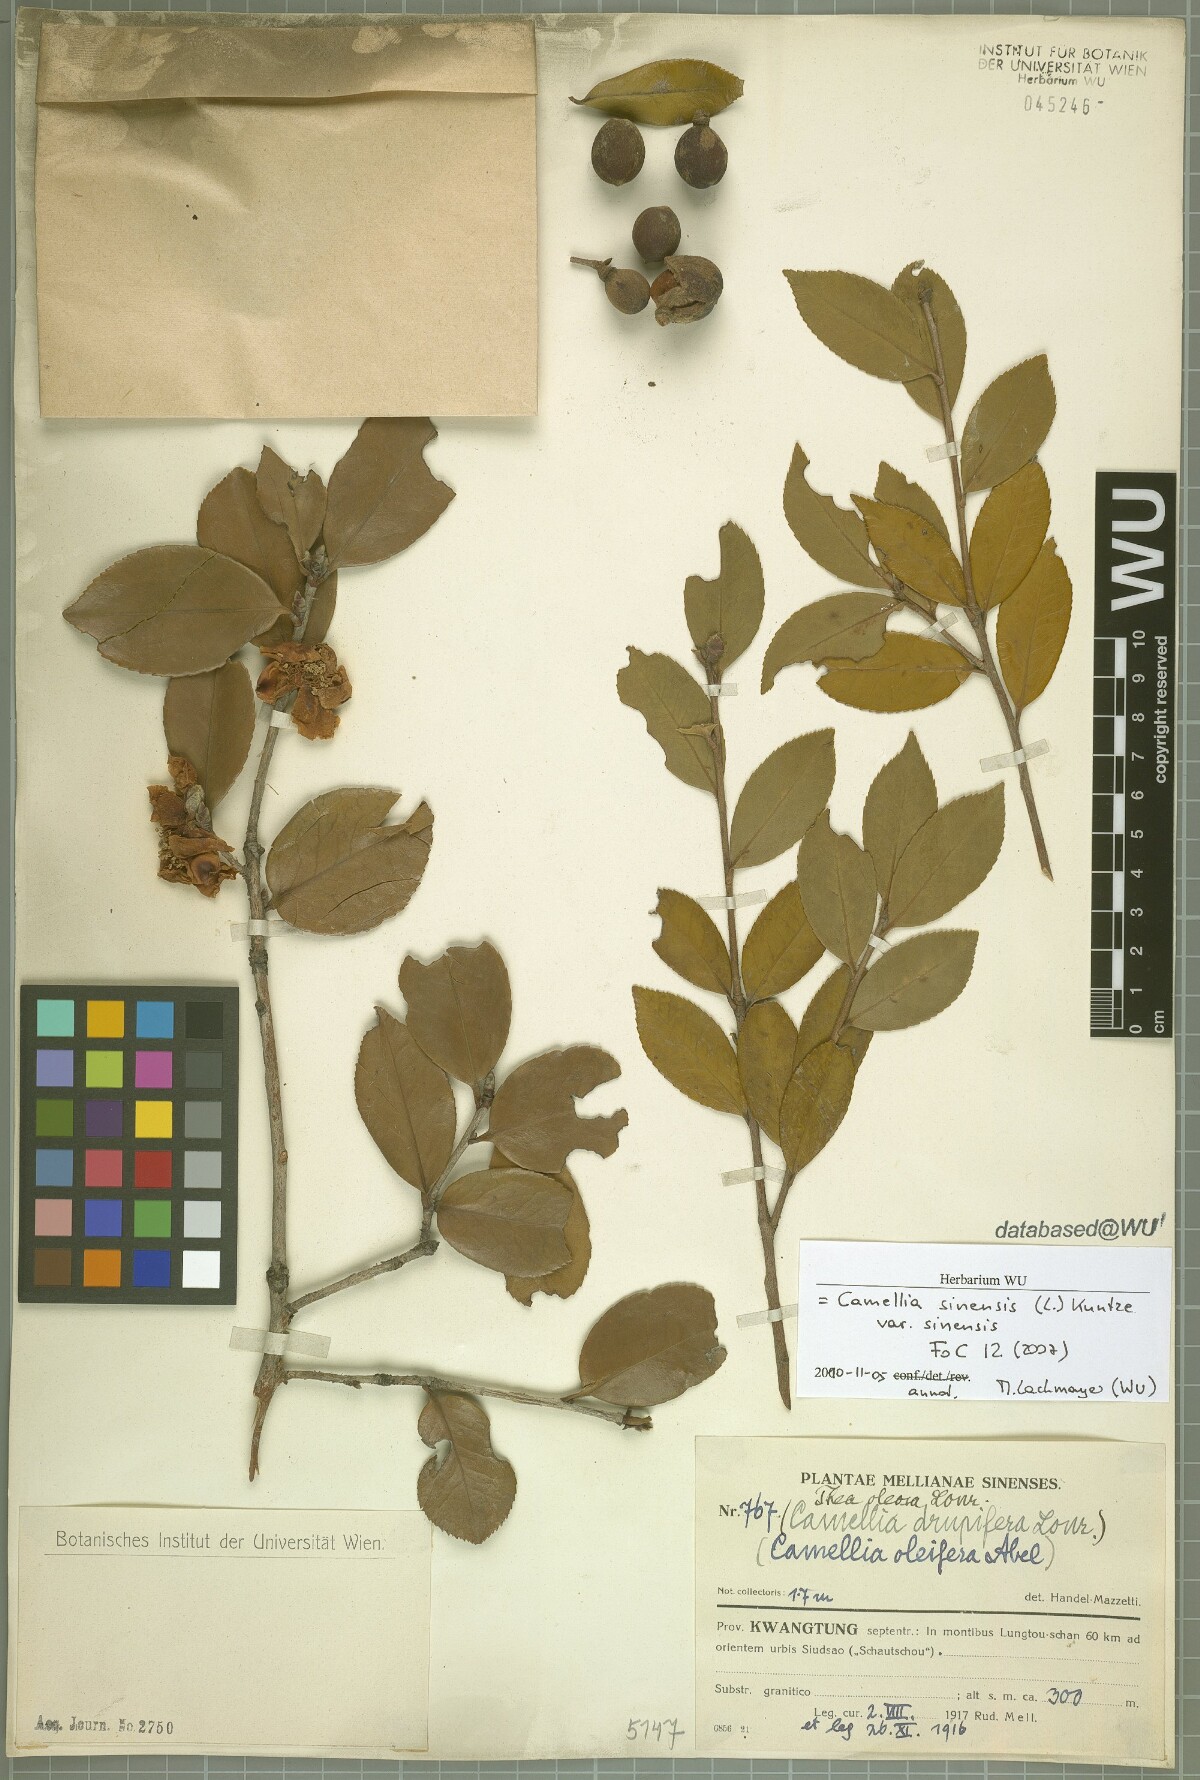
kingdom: Plantae
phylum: Tracheophyta
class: Magnoliopsida
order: Ericales
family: Theaceae
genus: Camellia
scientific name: Camellia sinensis
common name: Tea
